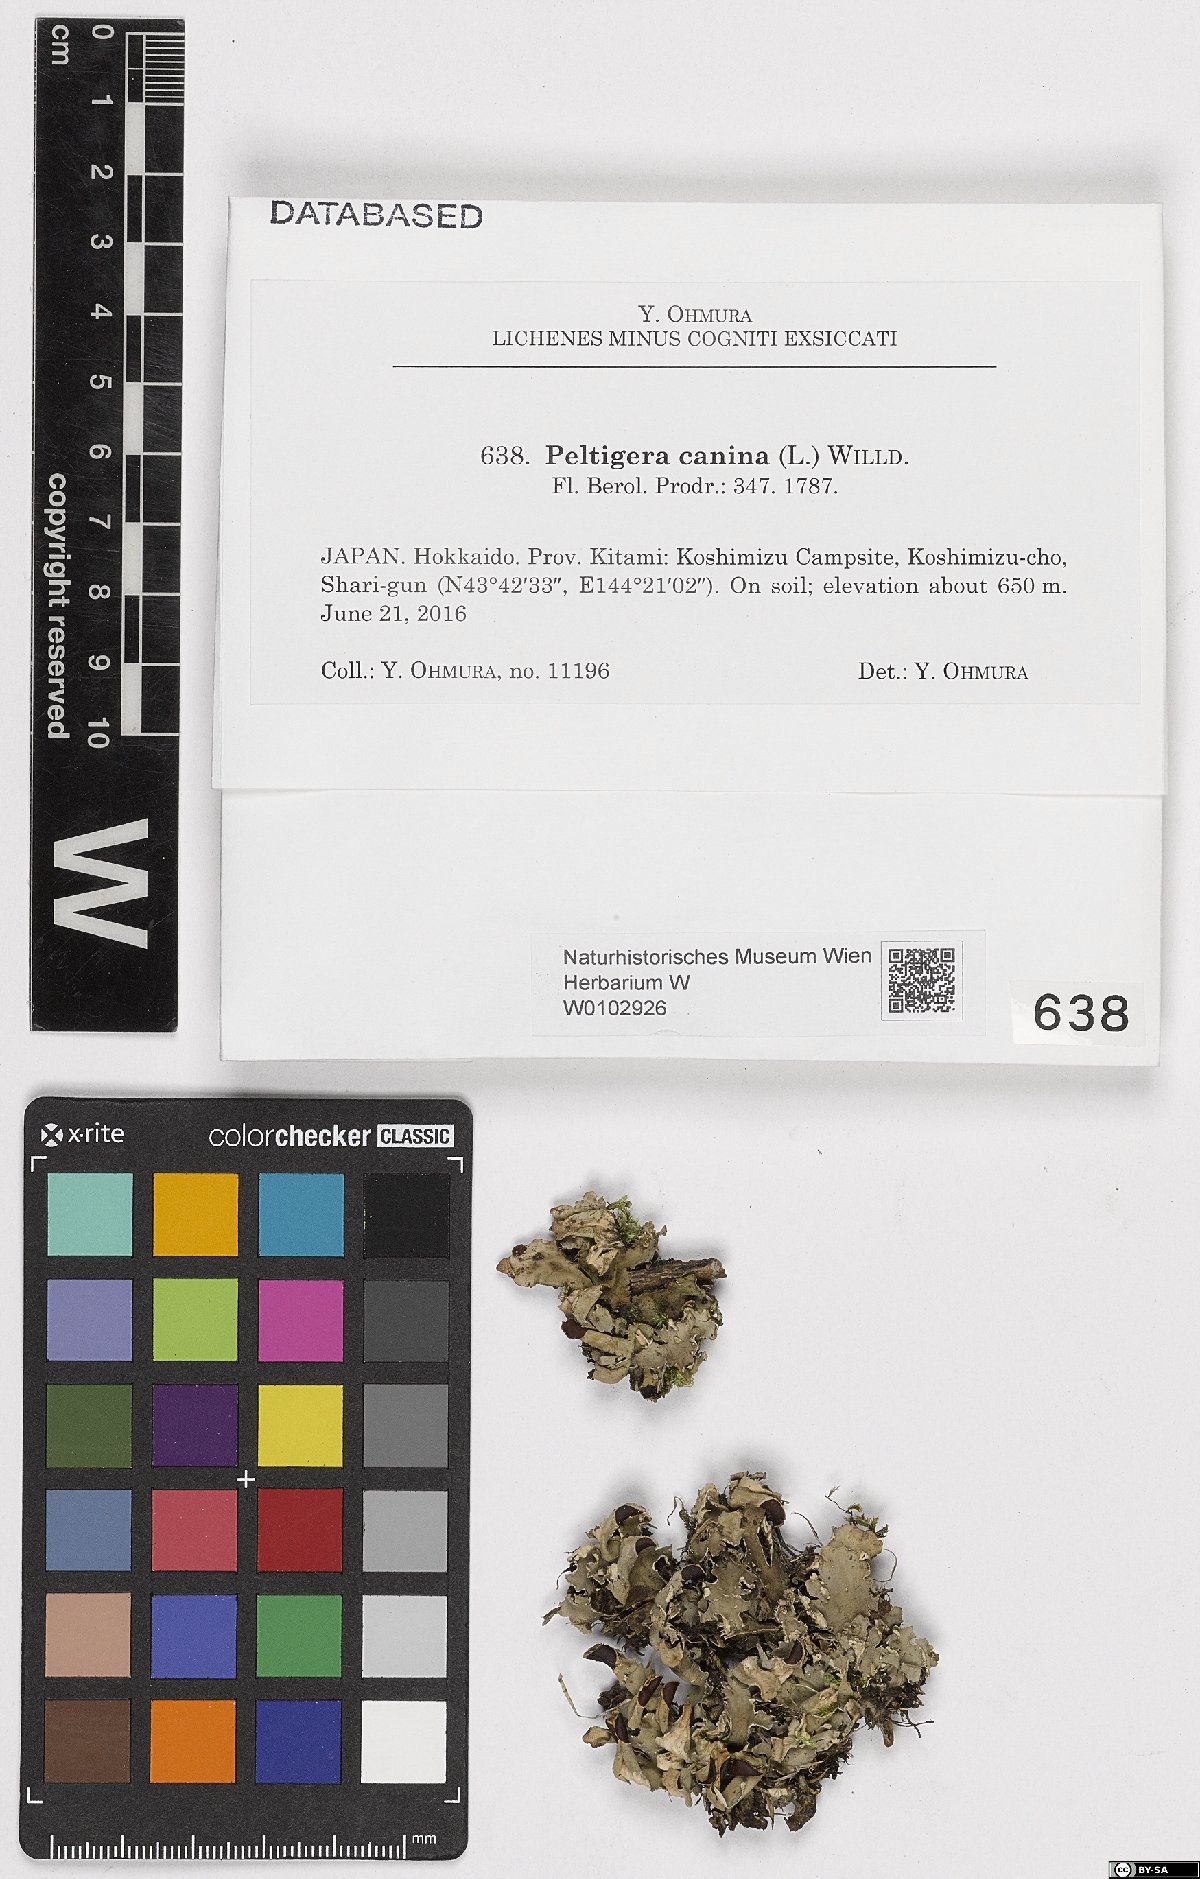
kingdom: Fungi
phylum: Ascomycota
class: Lecanoromycetes
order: Peltigerales
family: Peltigeraceae
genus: Peltigera
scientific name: Peltigera canina
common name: Dog pelt lichen
